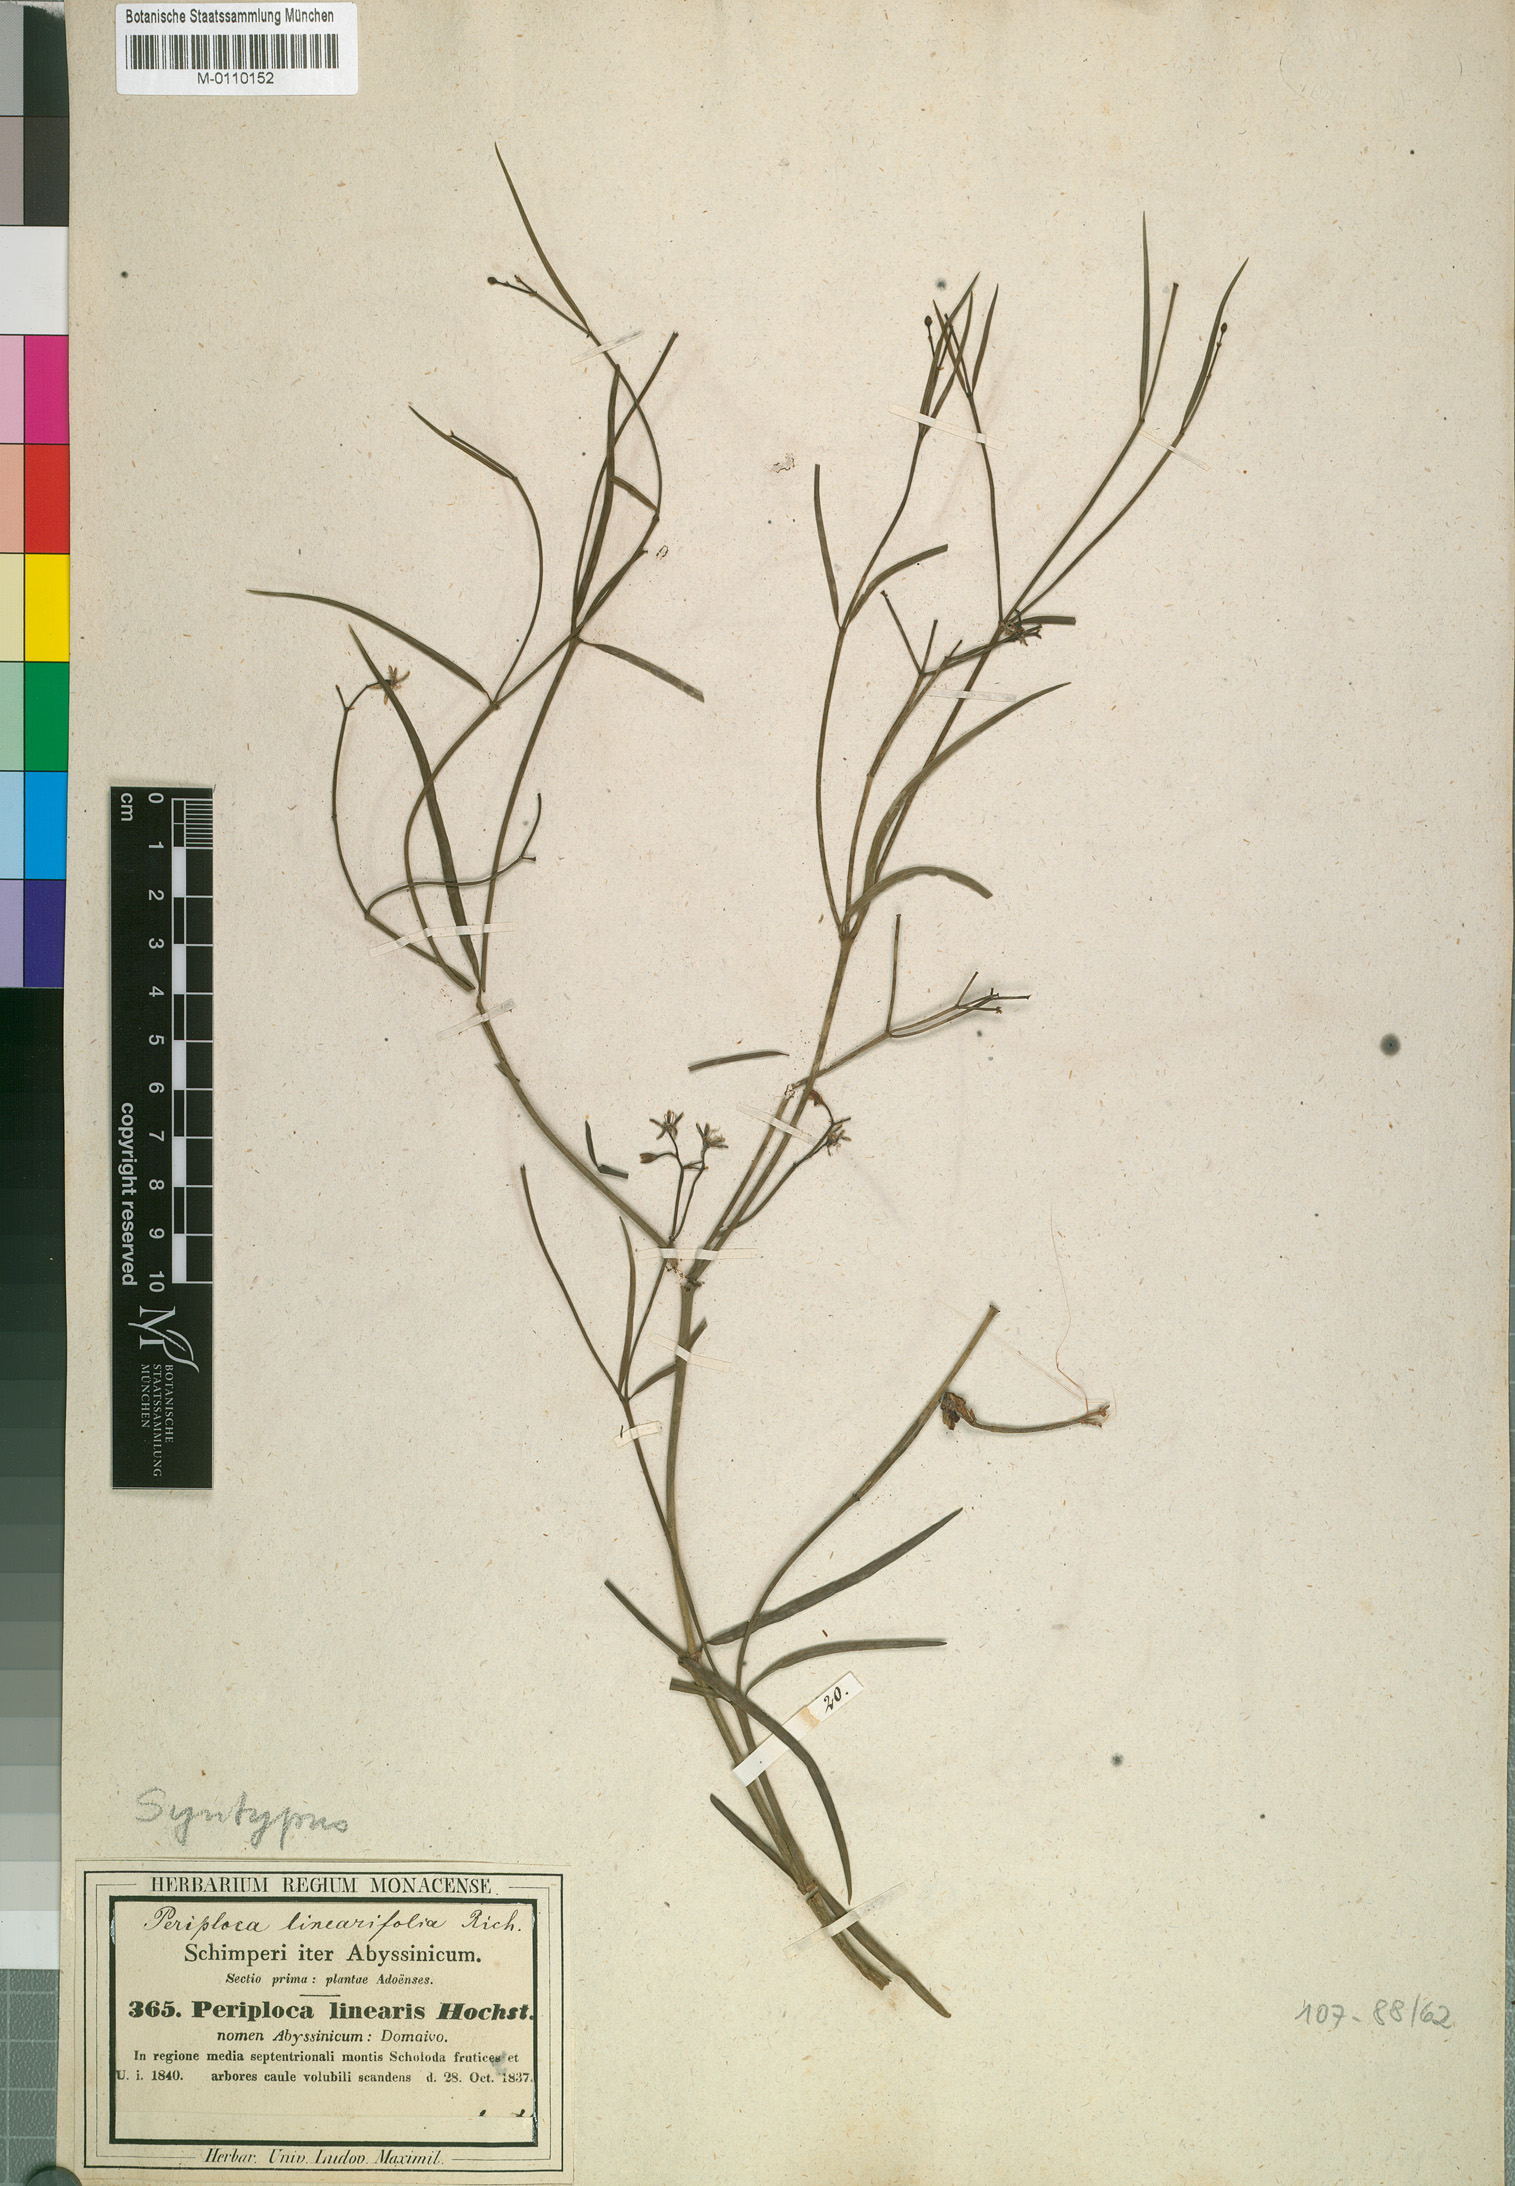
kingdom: Plantae
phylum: Tracheophyta
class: Magnoliopsida
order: Gentianales
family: Apocynaceae
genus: Periploca
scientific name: Periploca linearifolia
